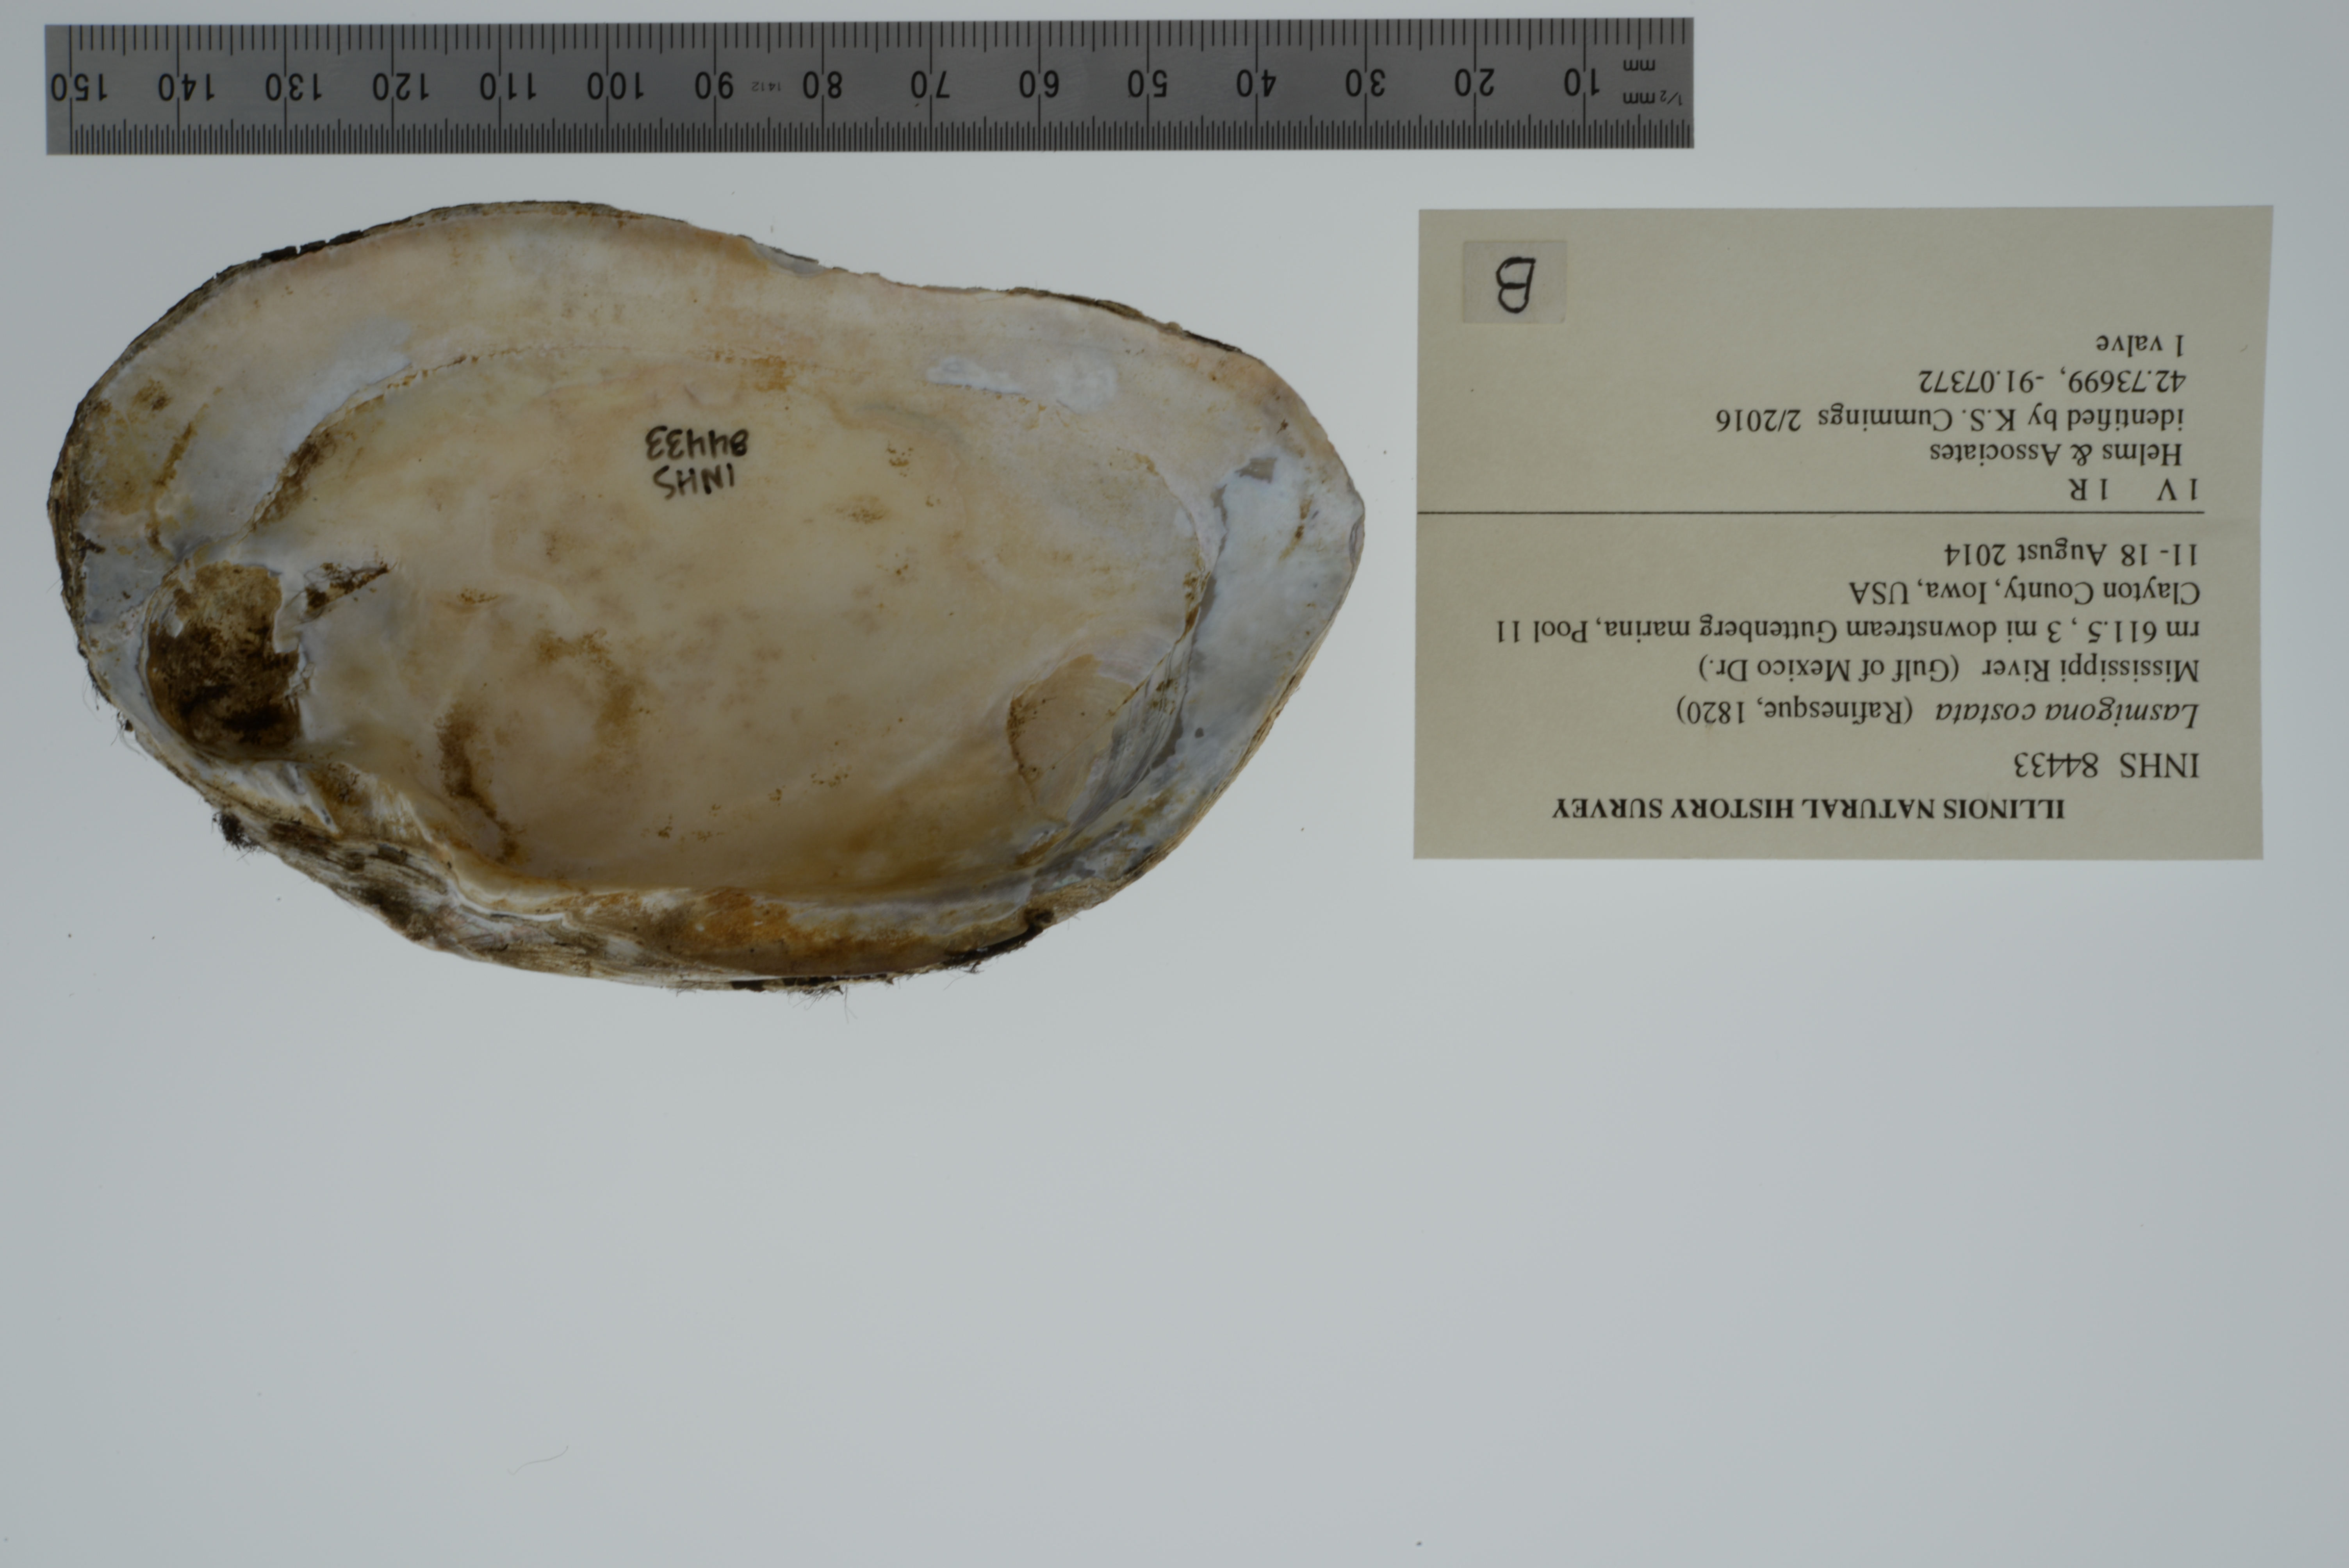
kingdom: Animalia
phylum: Mollusca
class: Bivalvia
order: Unionida
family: Unionidae
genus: Lasmigona
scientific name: Lasmigona costata
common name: Flutedshell
